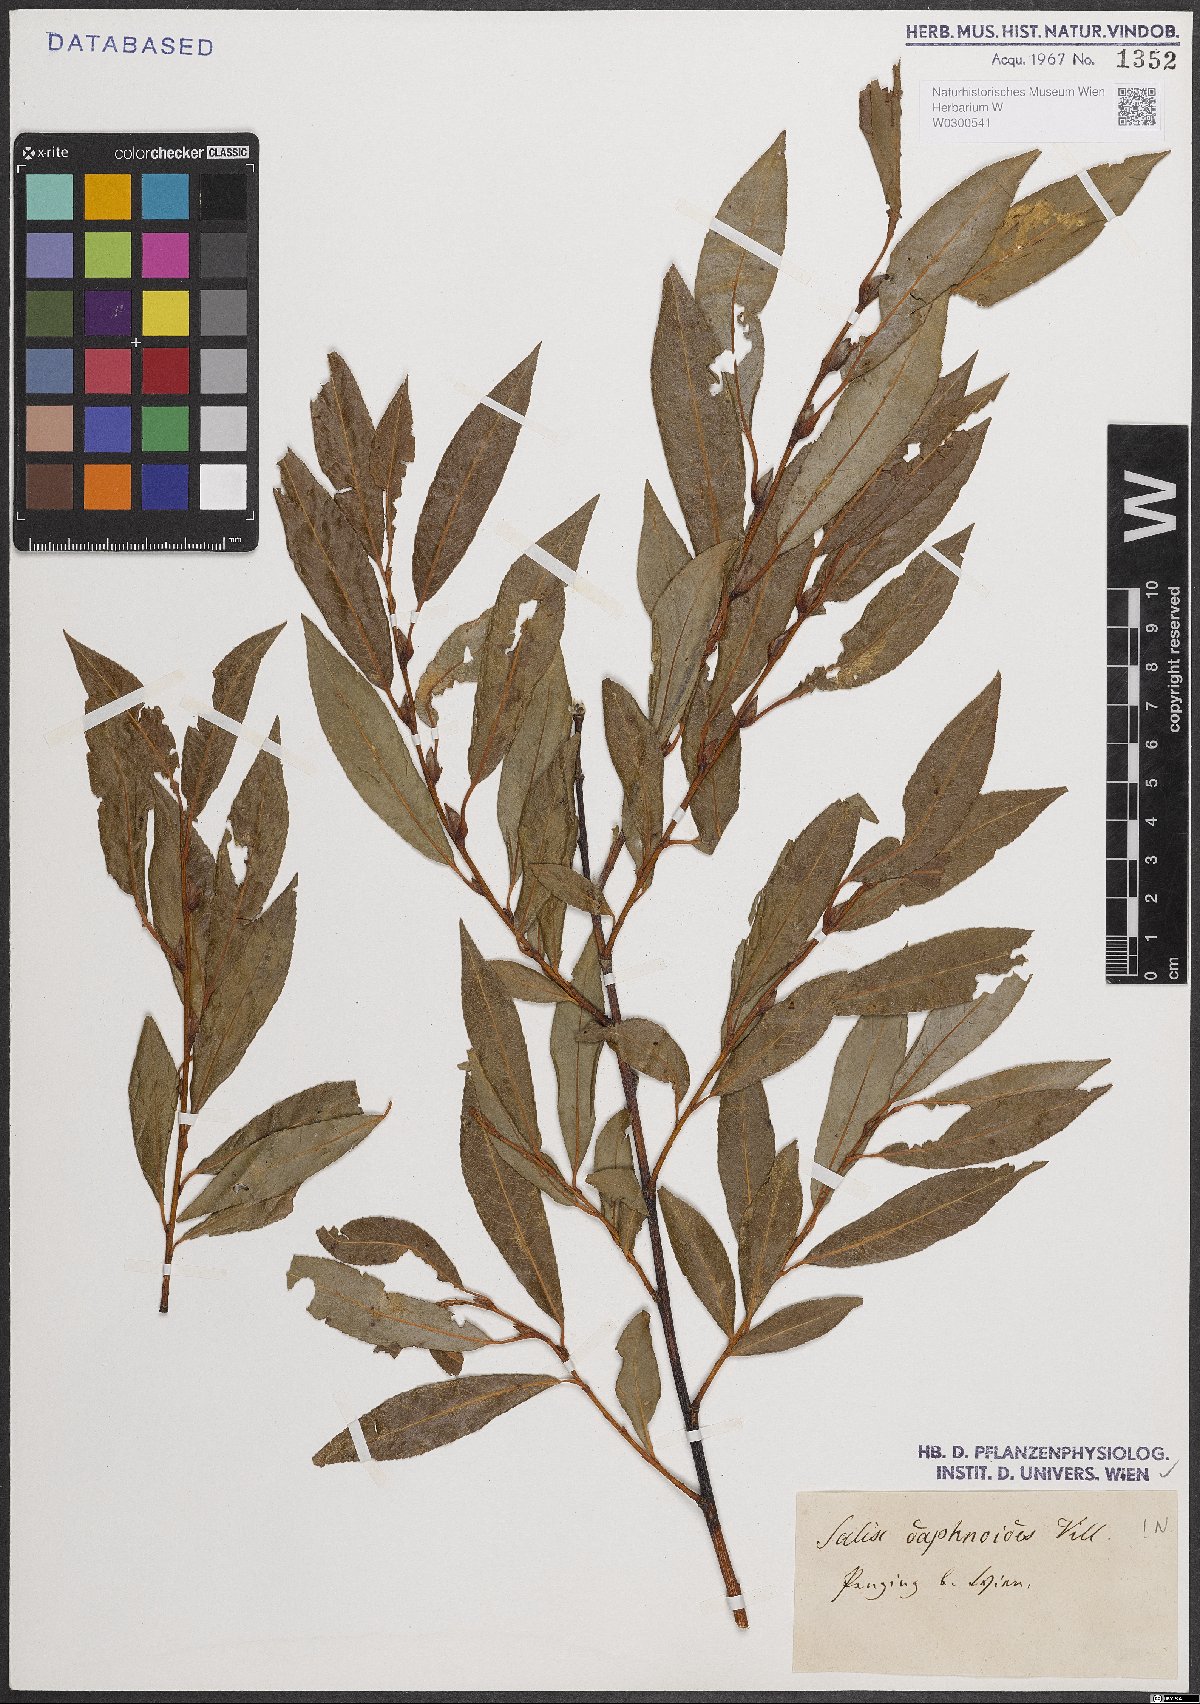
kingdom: Plantae
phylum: Tracheophyta
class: Magnoliopsida
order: Malpighiales
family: Salicaceae
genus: Salix
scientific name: Salix daphnoides
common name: European violet-willow
